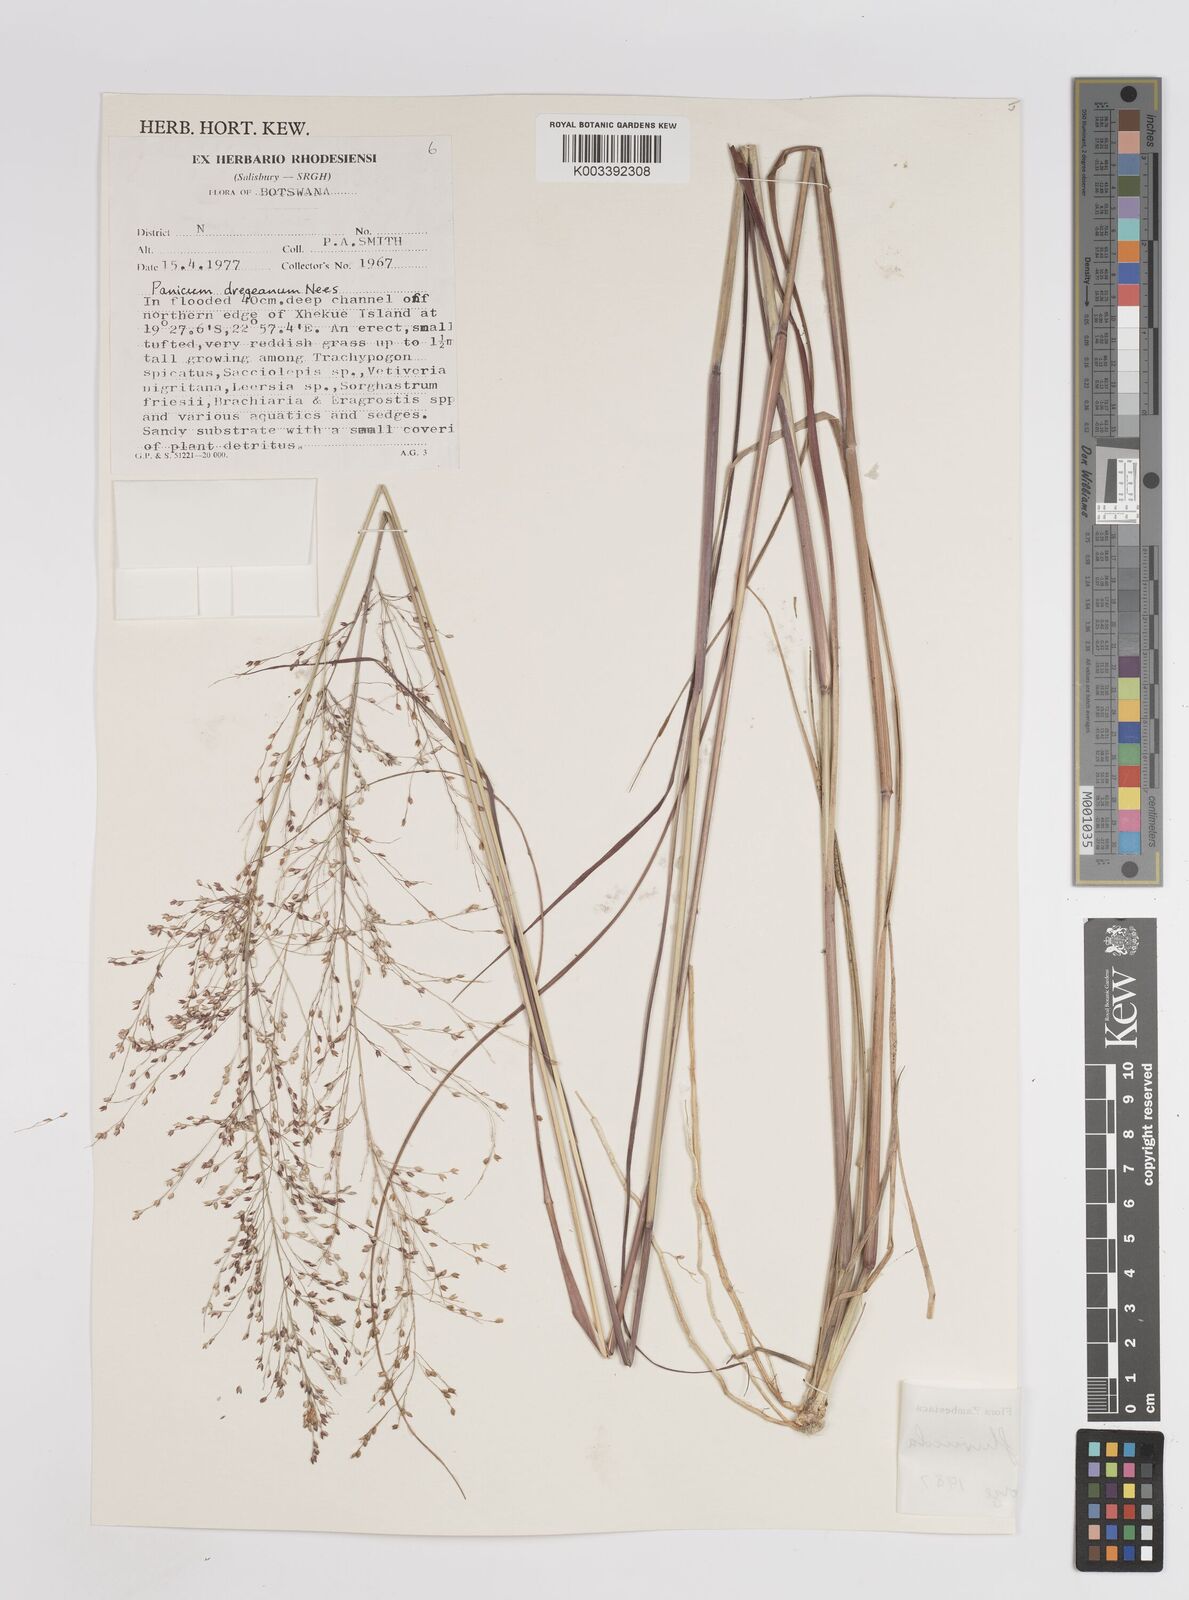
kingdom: Plantae
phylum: Tracheophyta
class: Liliopsida
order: Poales
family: Poaceae
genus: Panicum
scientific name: Panicum fluviicola
